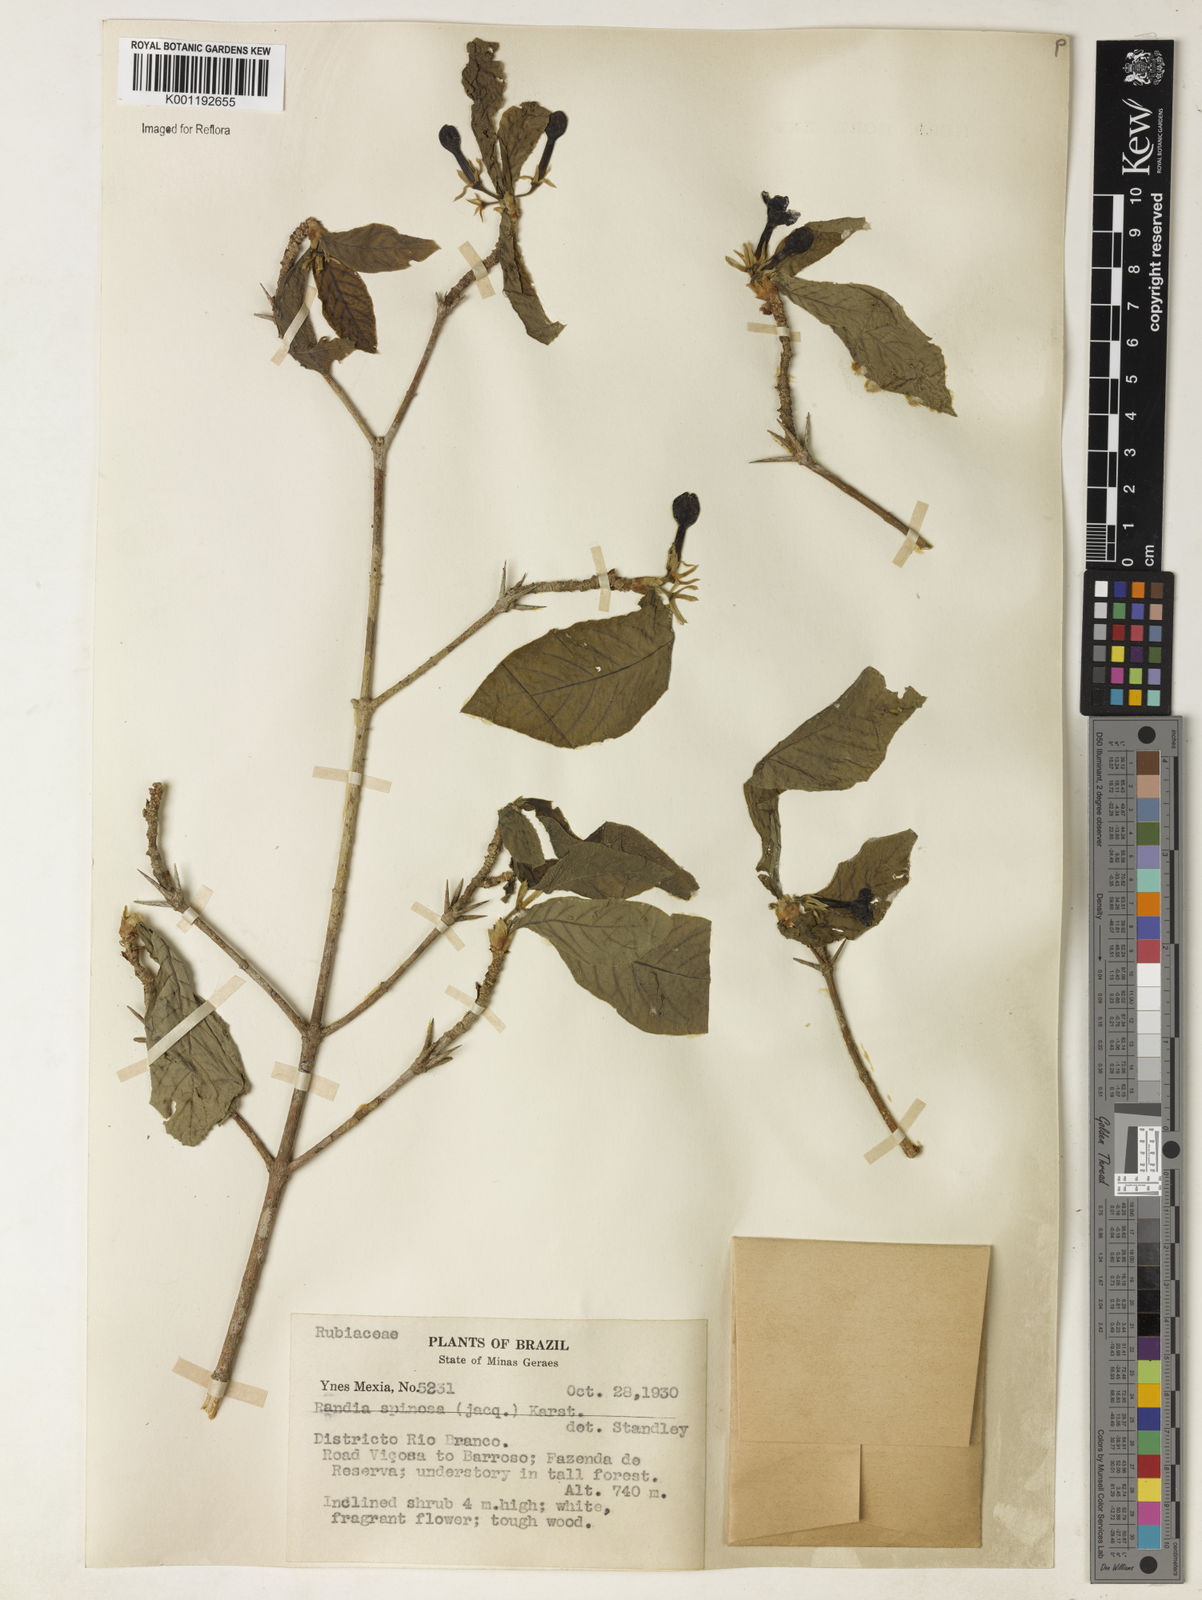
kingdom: Plantae
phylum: Tracheophyta
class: Magnoliopsida
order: Gentianales
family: Rubiaceae
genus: Randia
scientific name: Randia armata
